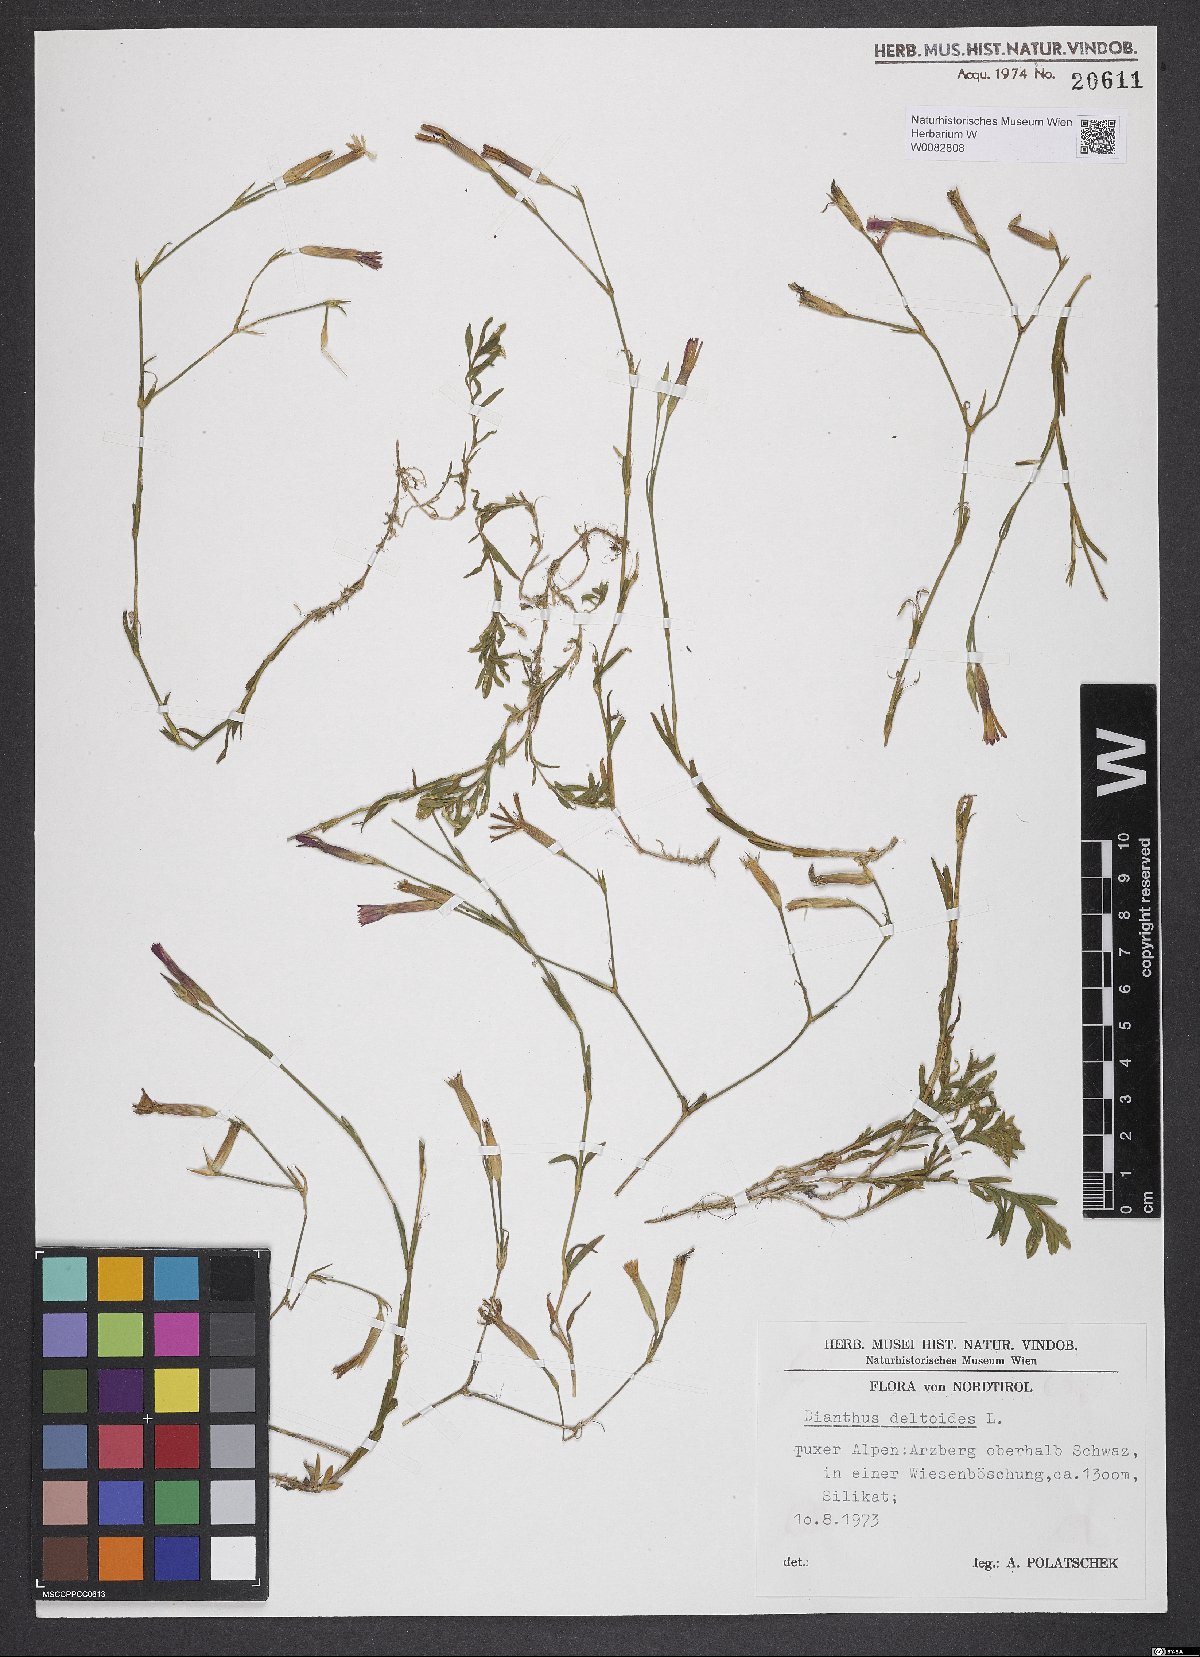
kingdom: Plantae
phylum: Tracheophyta
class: Magnoliopsida
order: Caryophyllales
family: Caryophyllaceae
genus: Dianthus
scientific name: Dianthus deltoides
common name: Maiden pink
